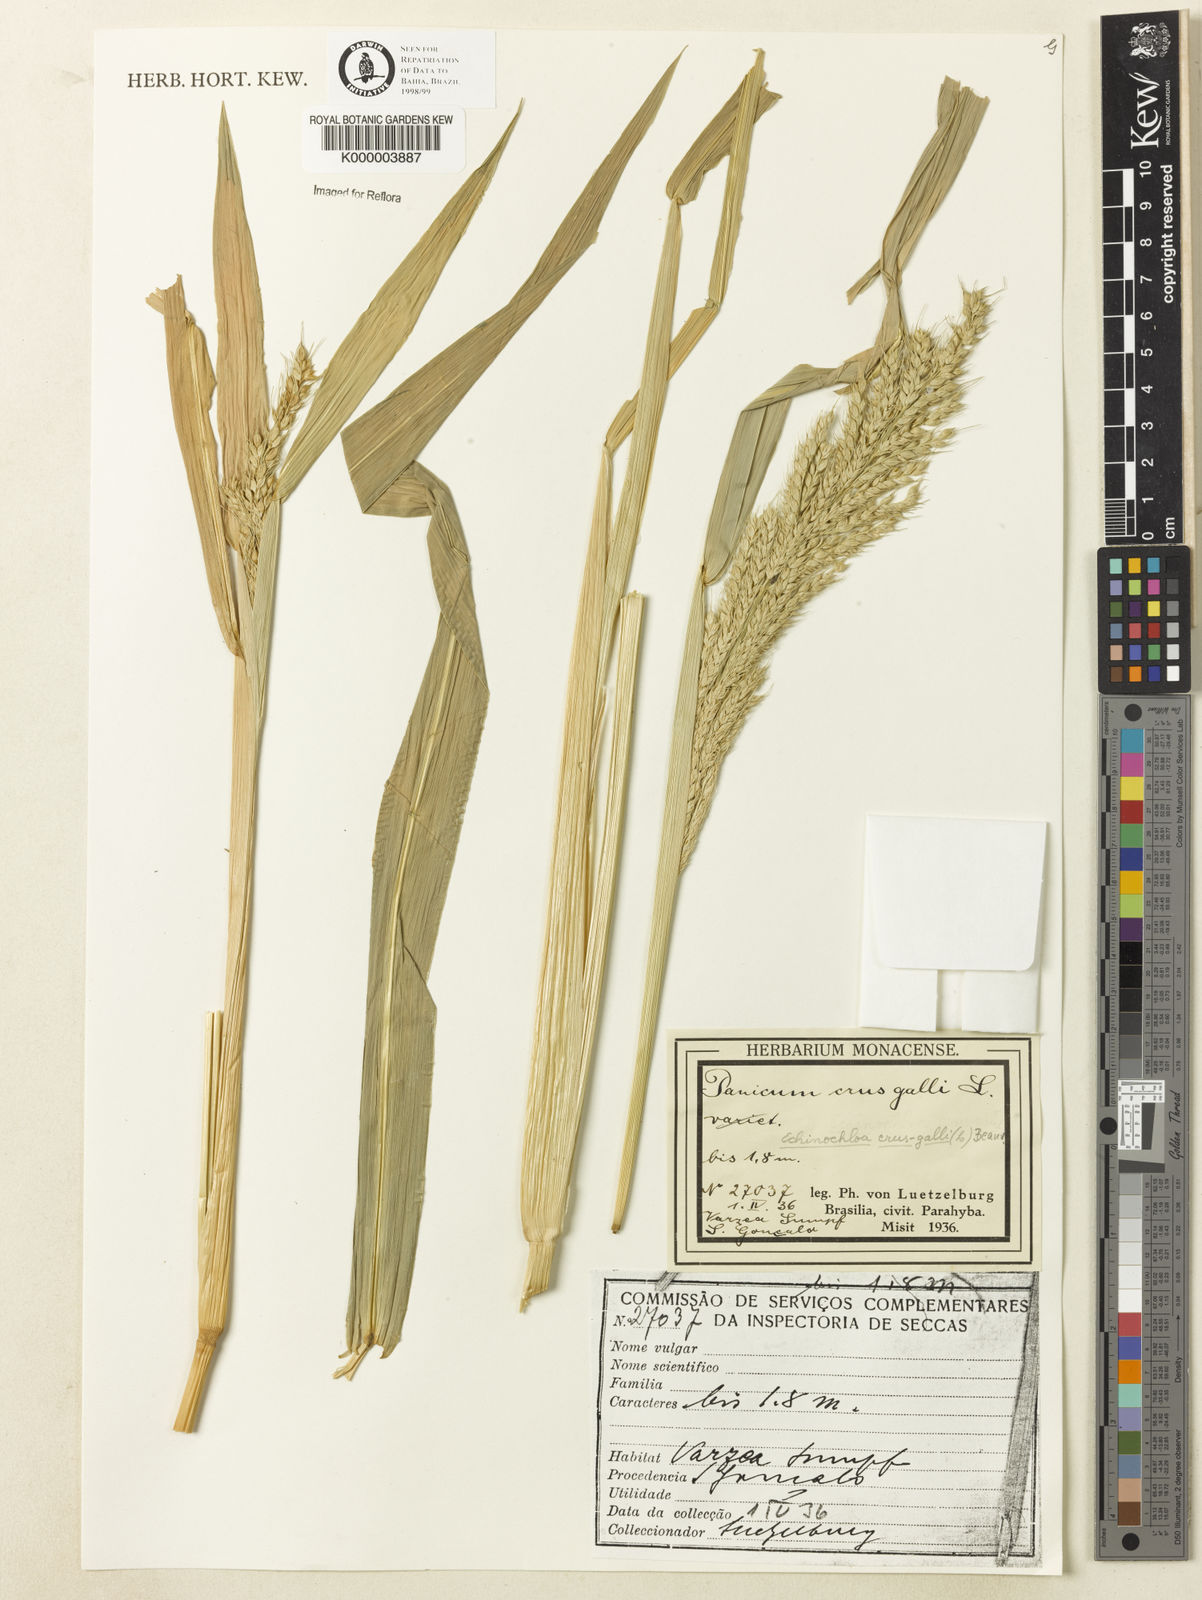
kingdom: Plantae
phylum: Tracheophyta
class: Liliopsida
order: Poales
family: Poaceae
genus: Echinochloa
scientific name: Echinochloa polystachya
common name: Creeping river grass
